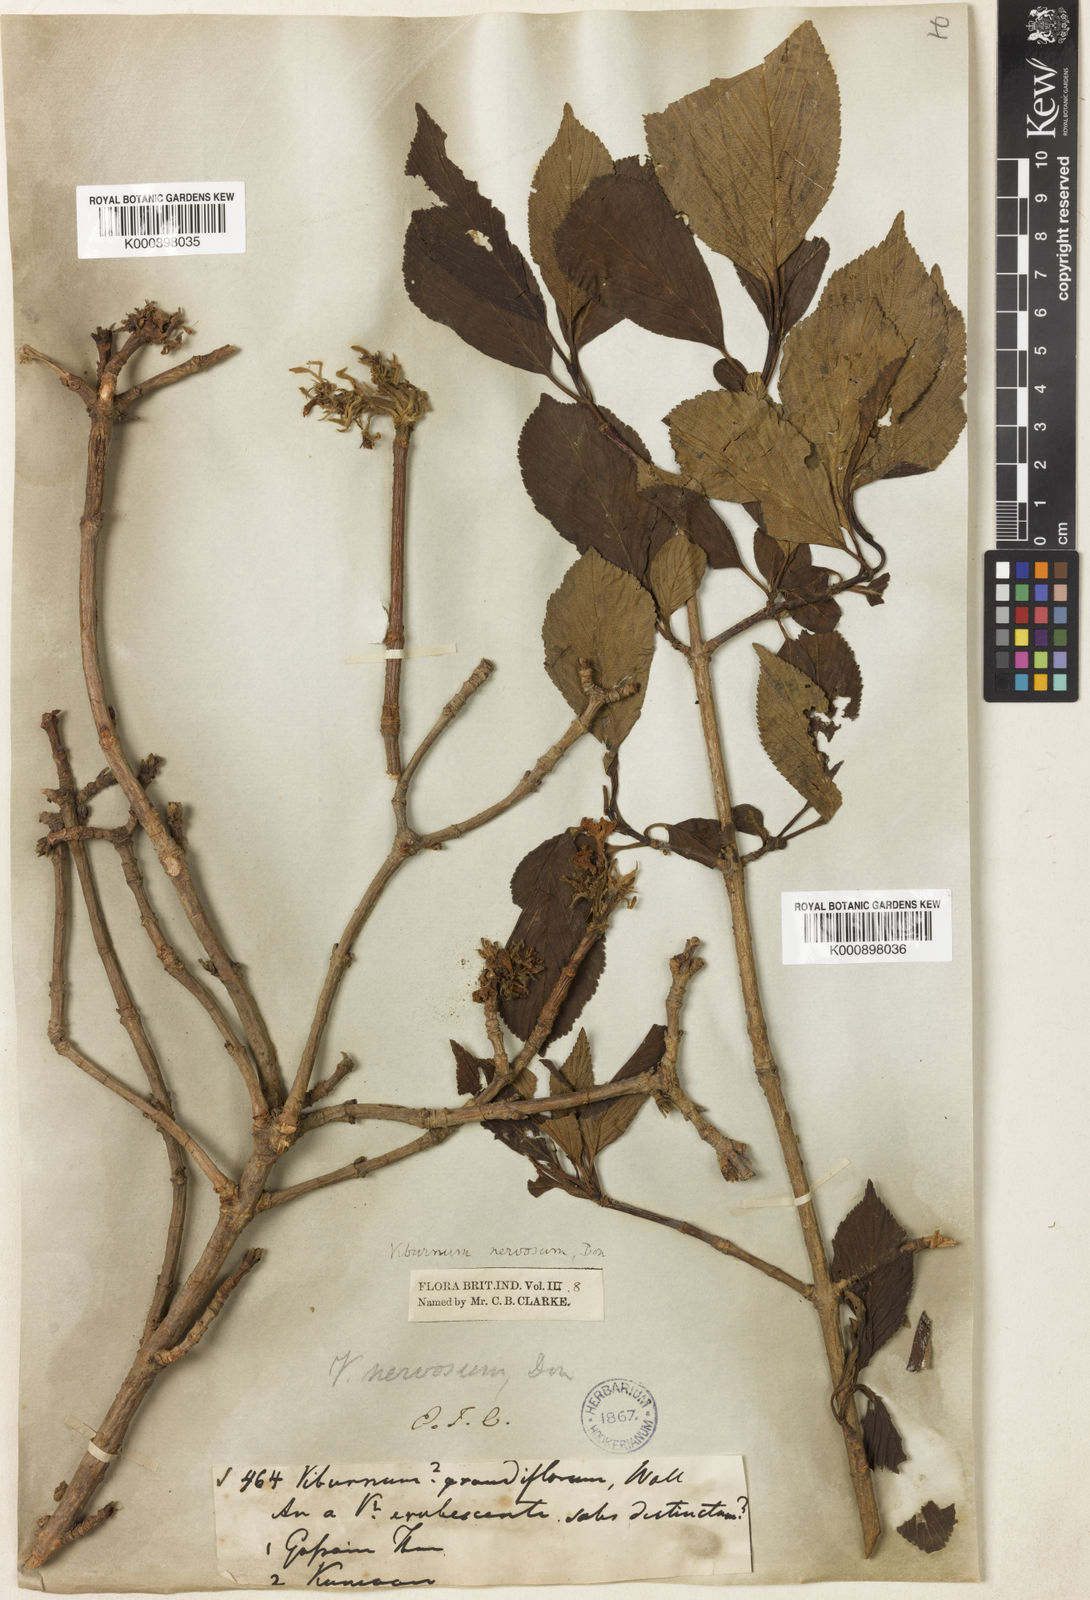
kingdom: Plantae
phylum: Tracheophyta
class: Magnoliopsida
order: Dipsacales
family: Viburnaceae
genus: Viburnum
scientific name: Viburnum grandiflorum
